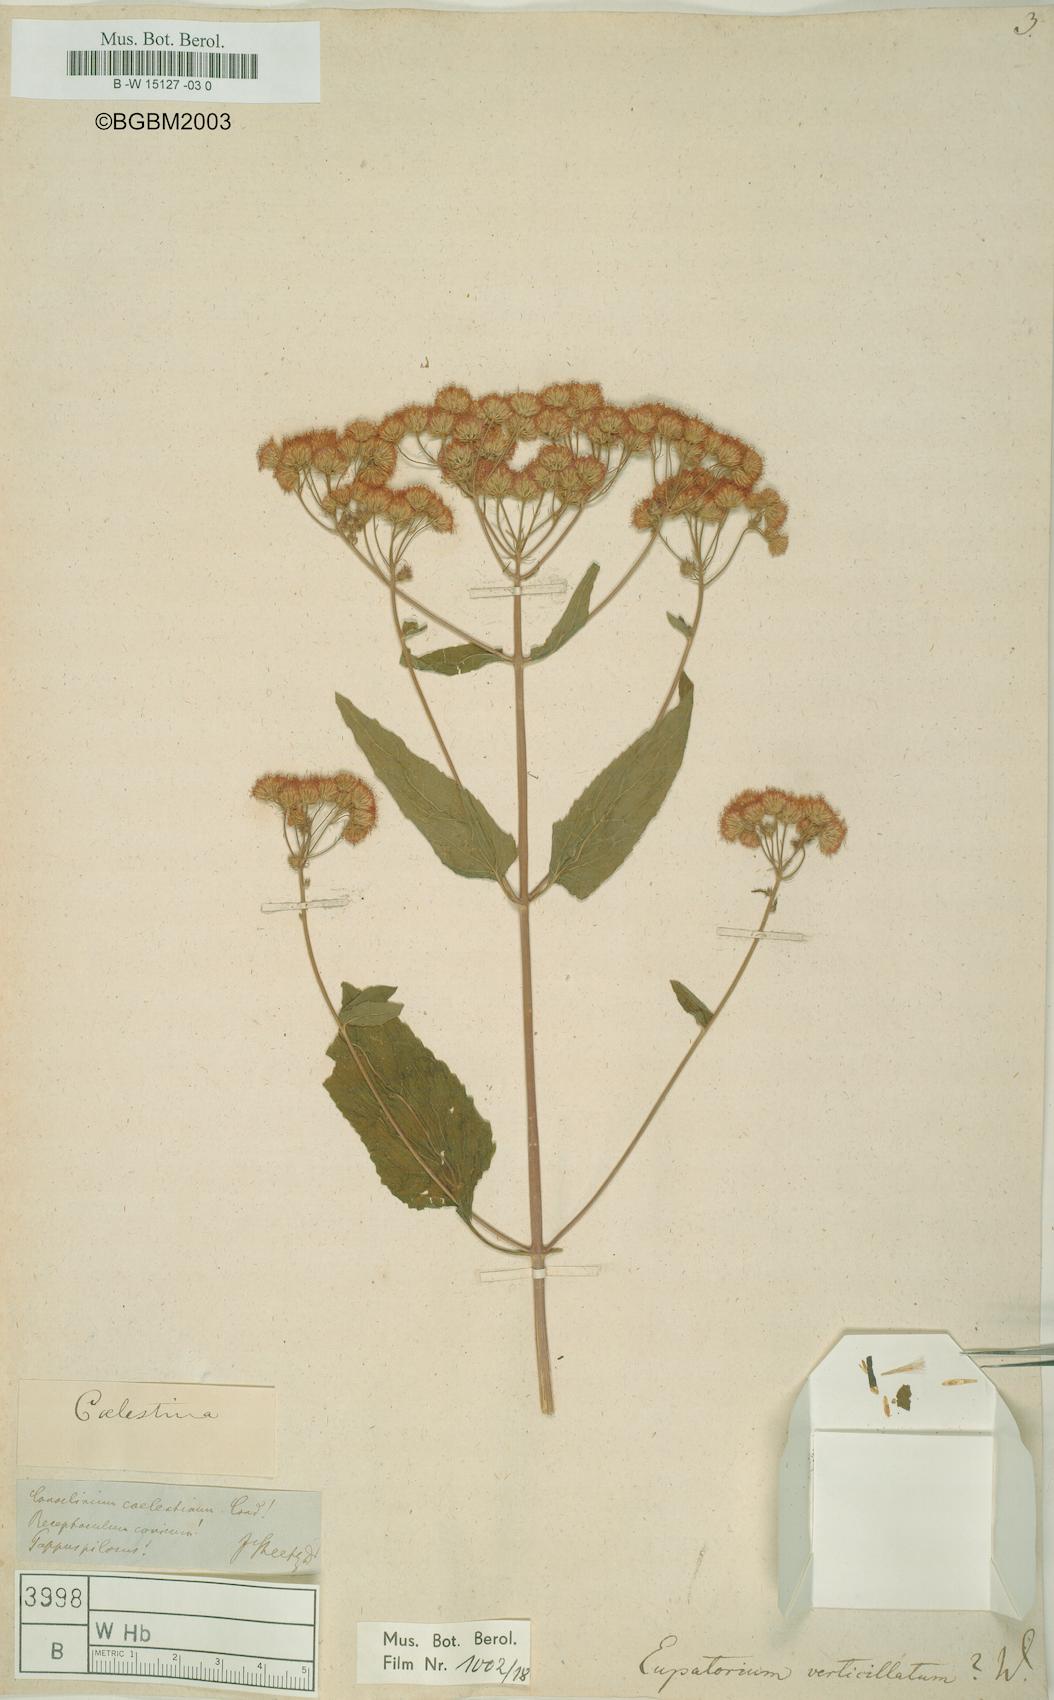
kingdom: Plantae
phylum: Tracheophyta
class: Magnoliopsida
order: Asterales
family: Asteraceae
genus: Eupatorium
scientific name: Eupatorium verticillatum
